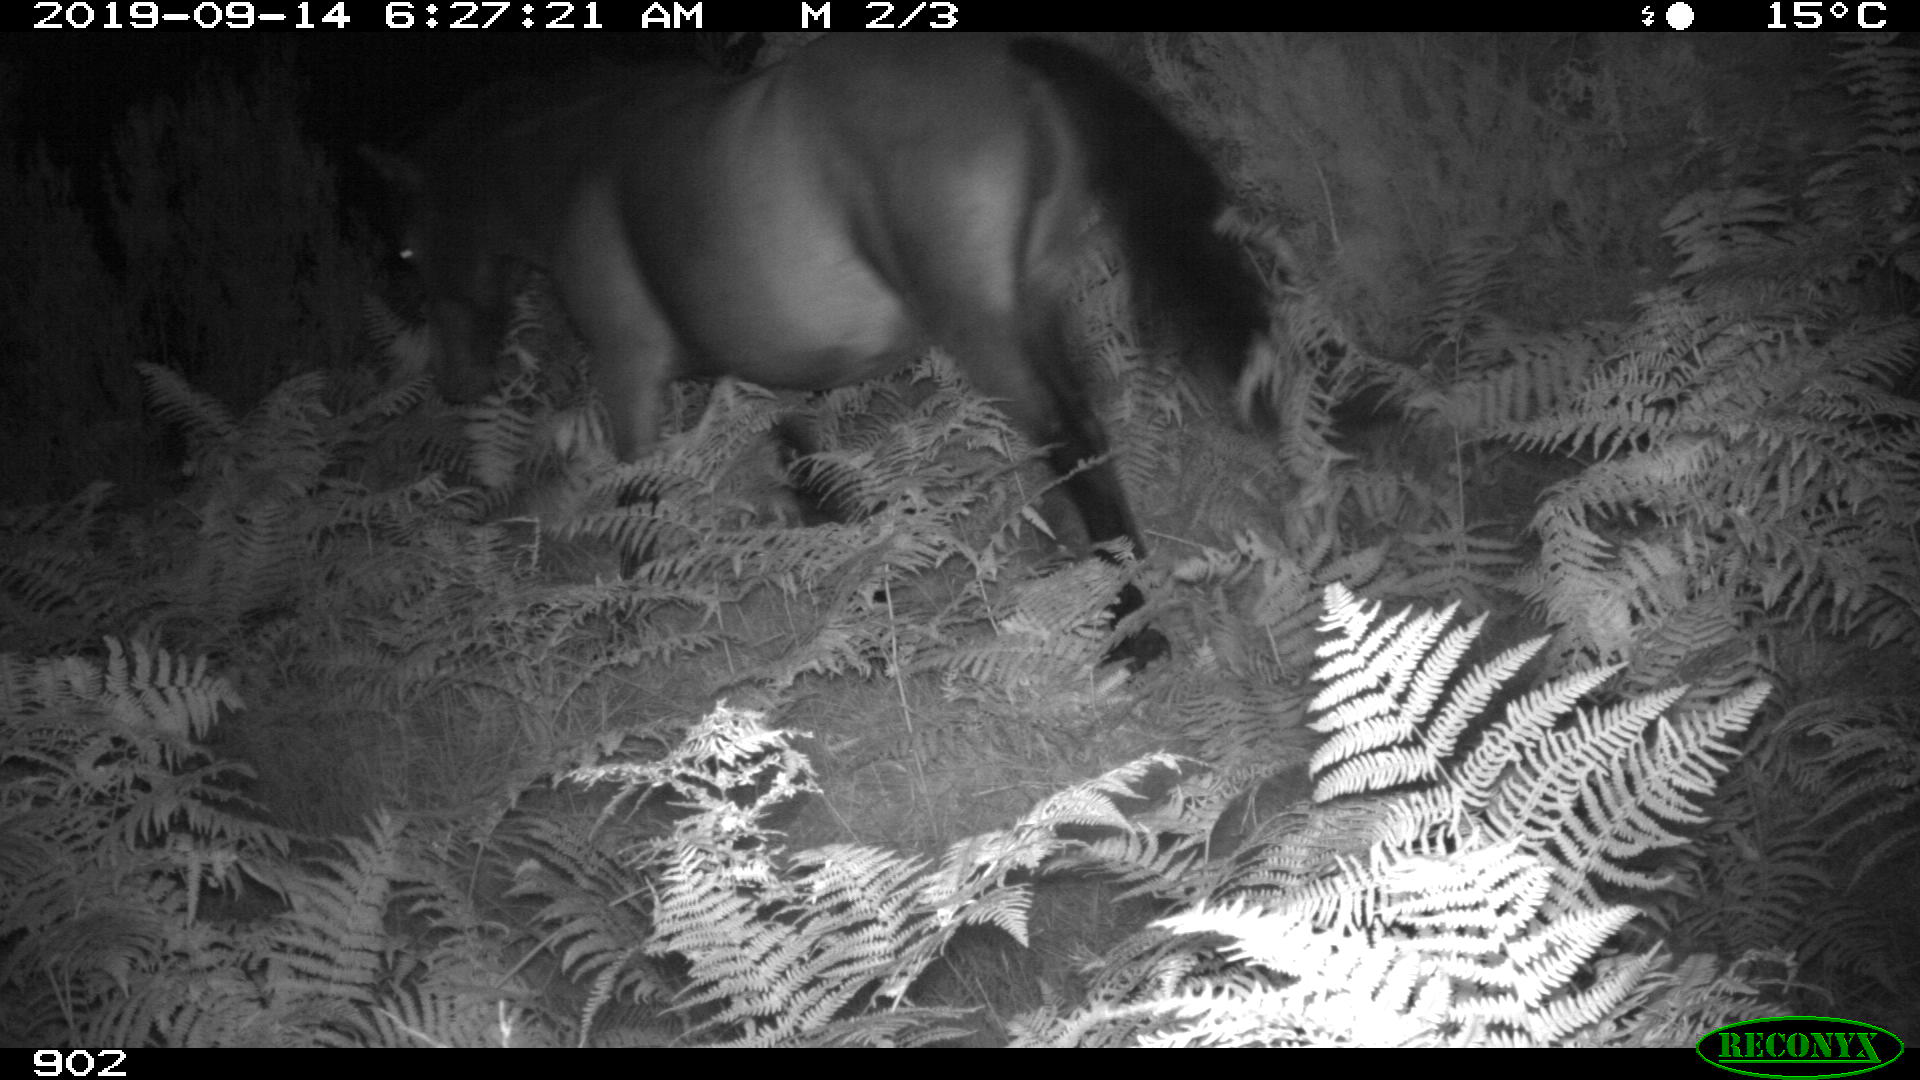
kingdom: Animalia
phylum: Chordata
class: Mammalia
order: Perissodactyla
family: Equidae
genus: Equus
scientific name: Equus caballus
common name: Horse
